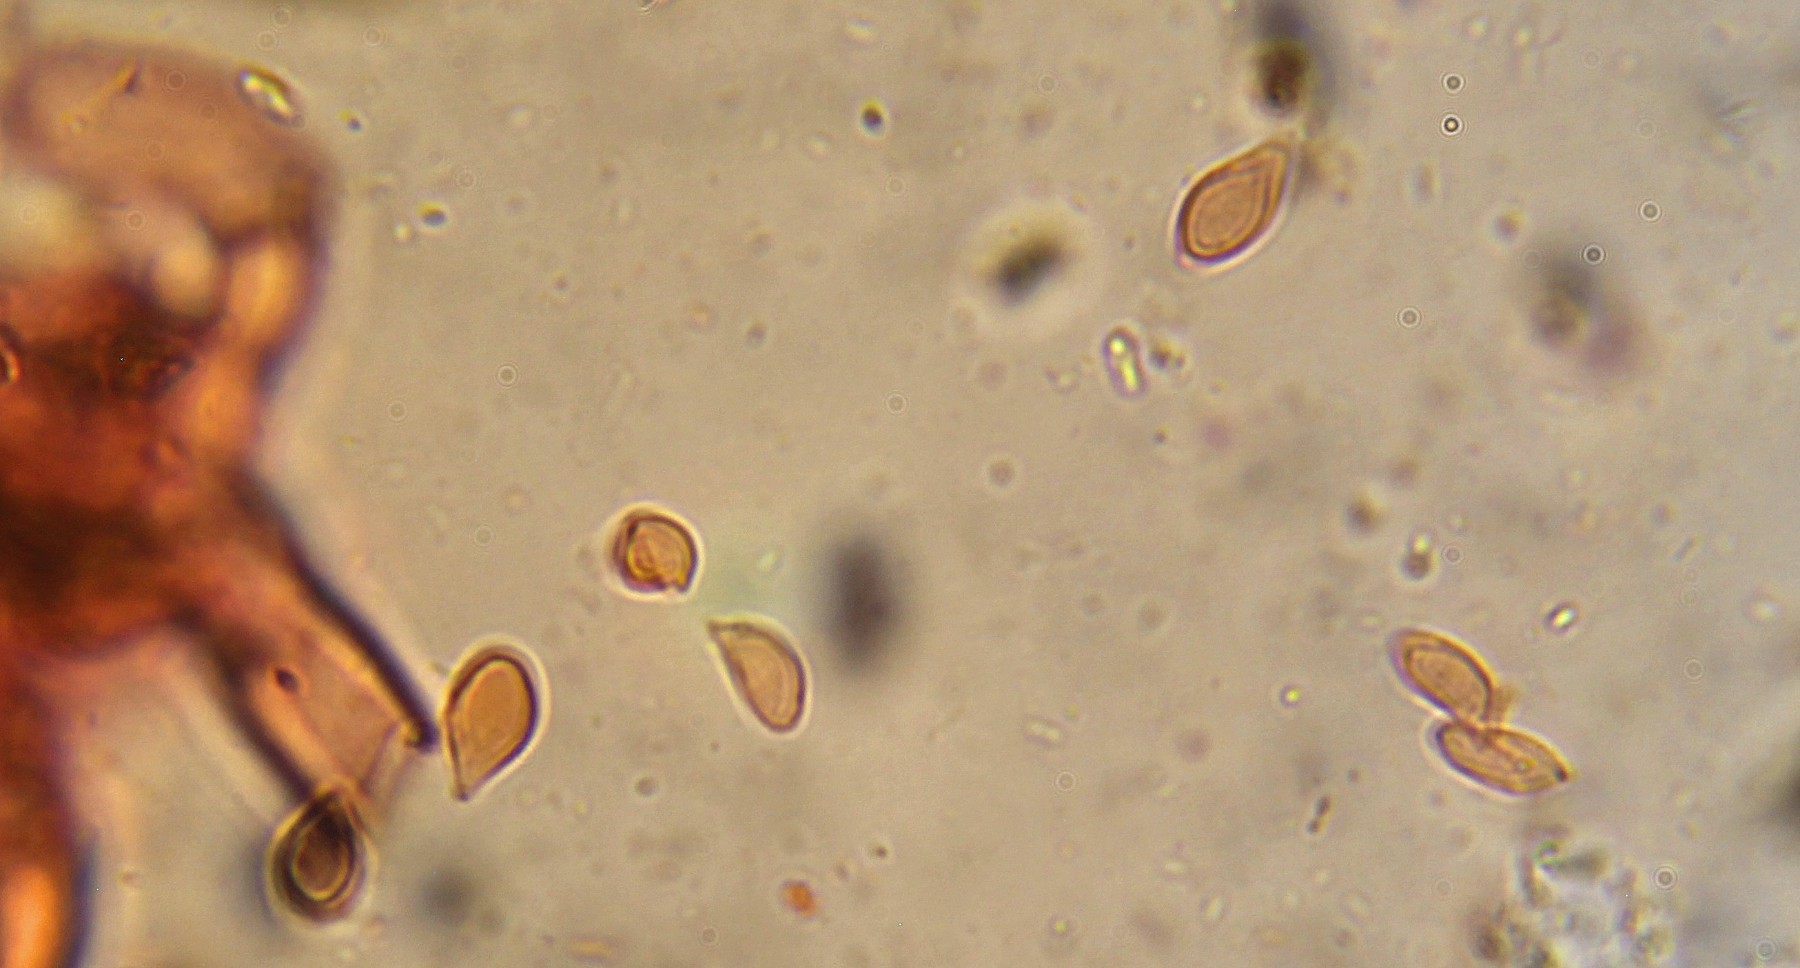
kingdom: Fungi
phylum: Basidiomycota
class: Agaricomycetes
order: Cantharellales
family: Botryobasidiaceae
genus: Botryobasidium
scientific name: Botryobasidium laeve
